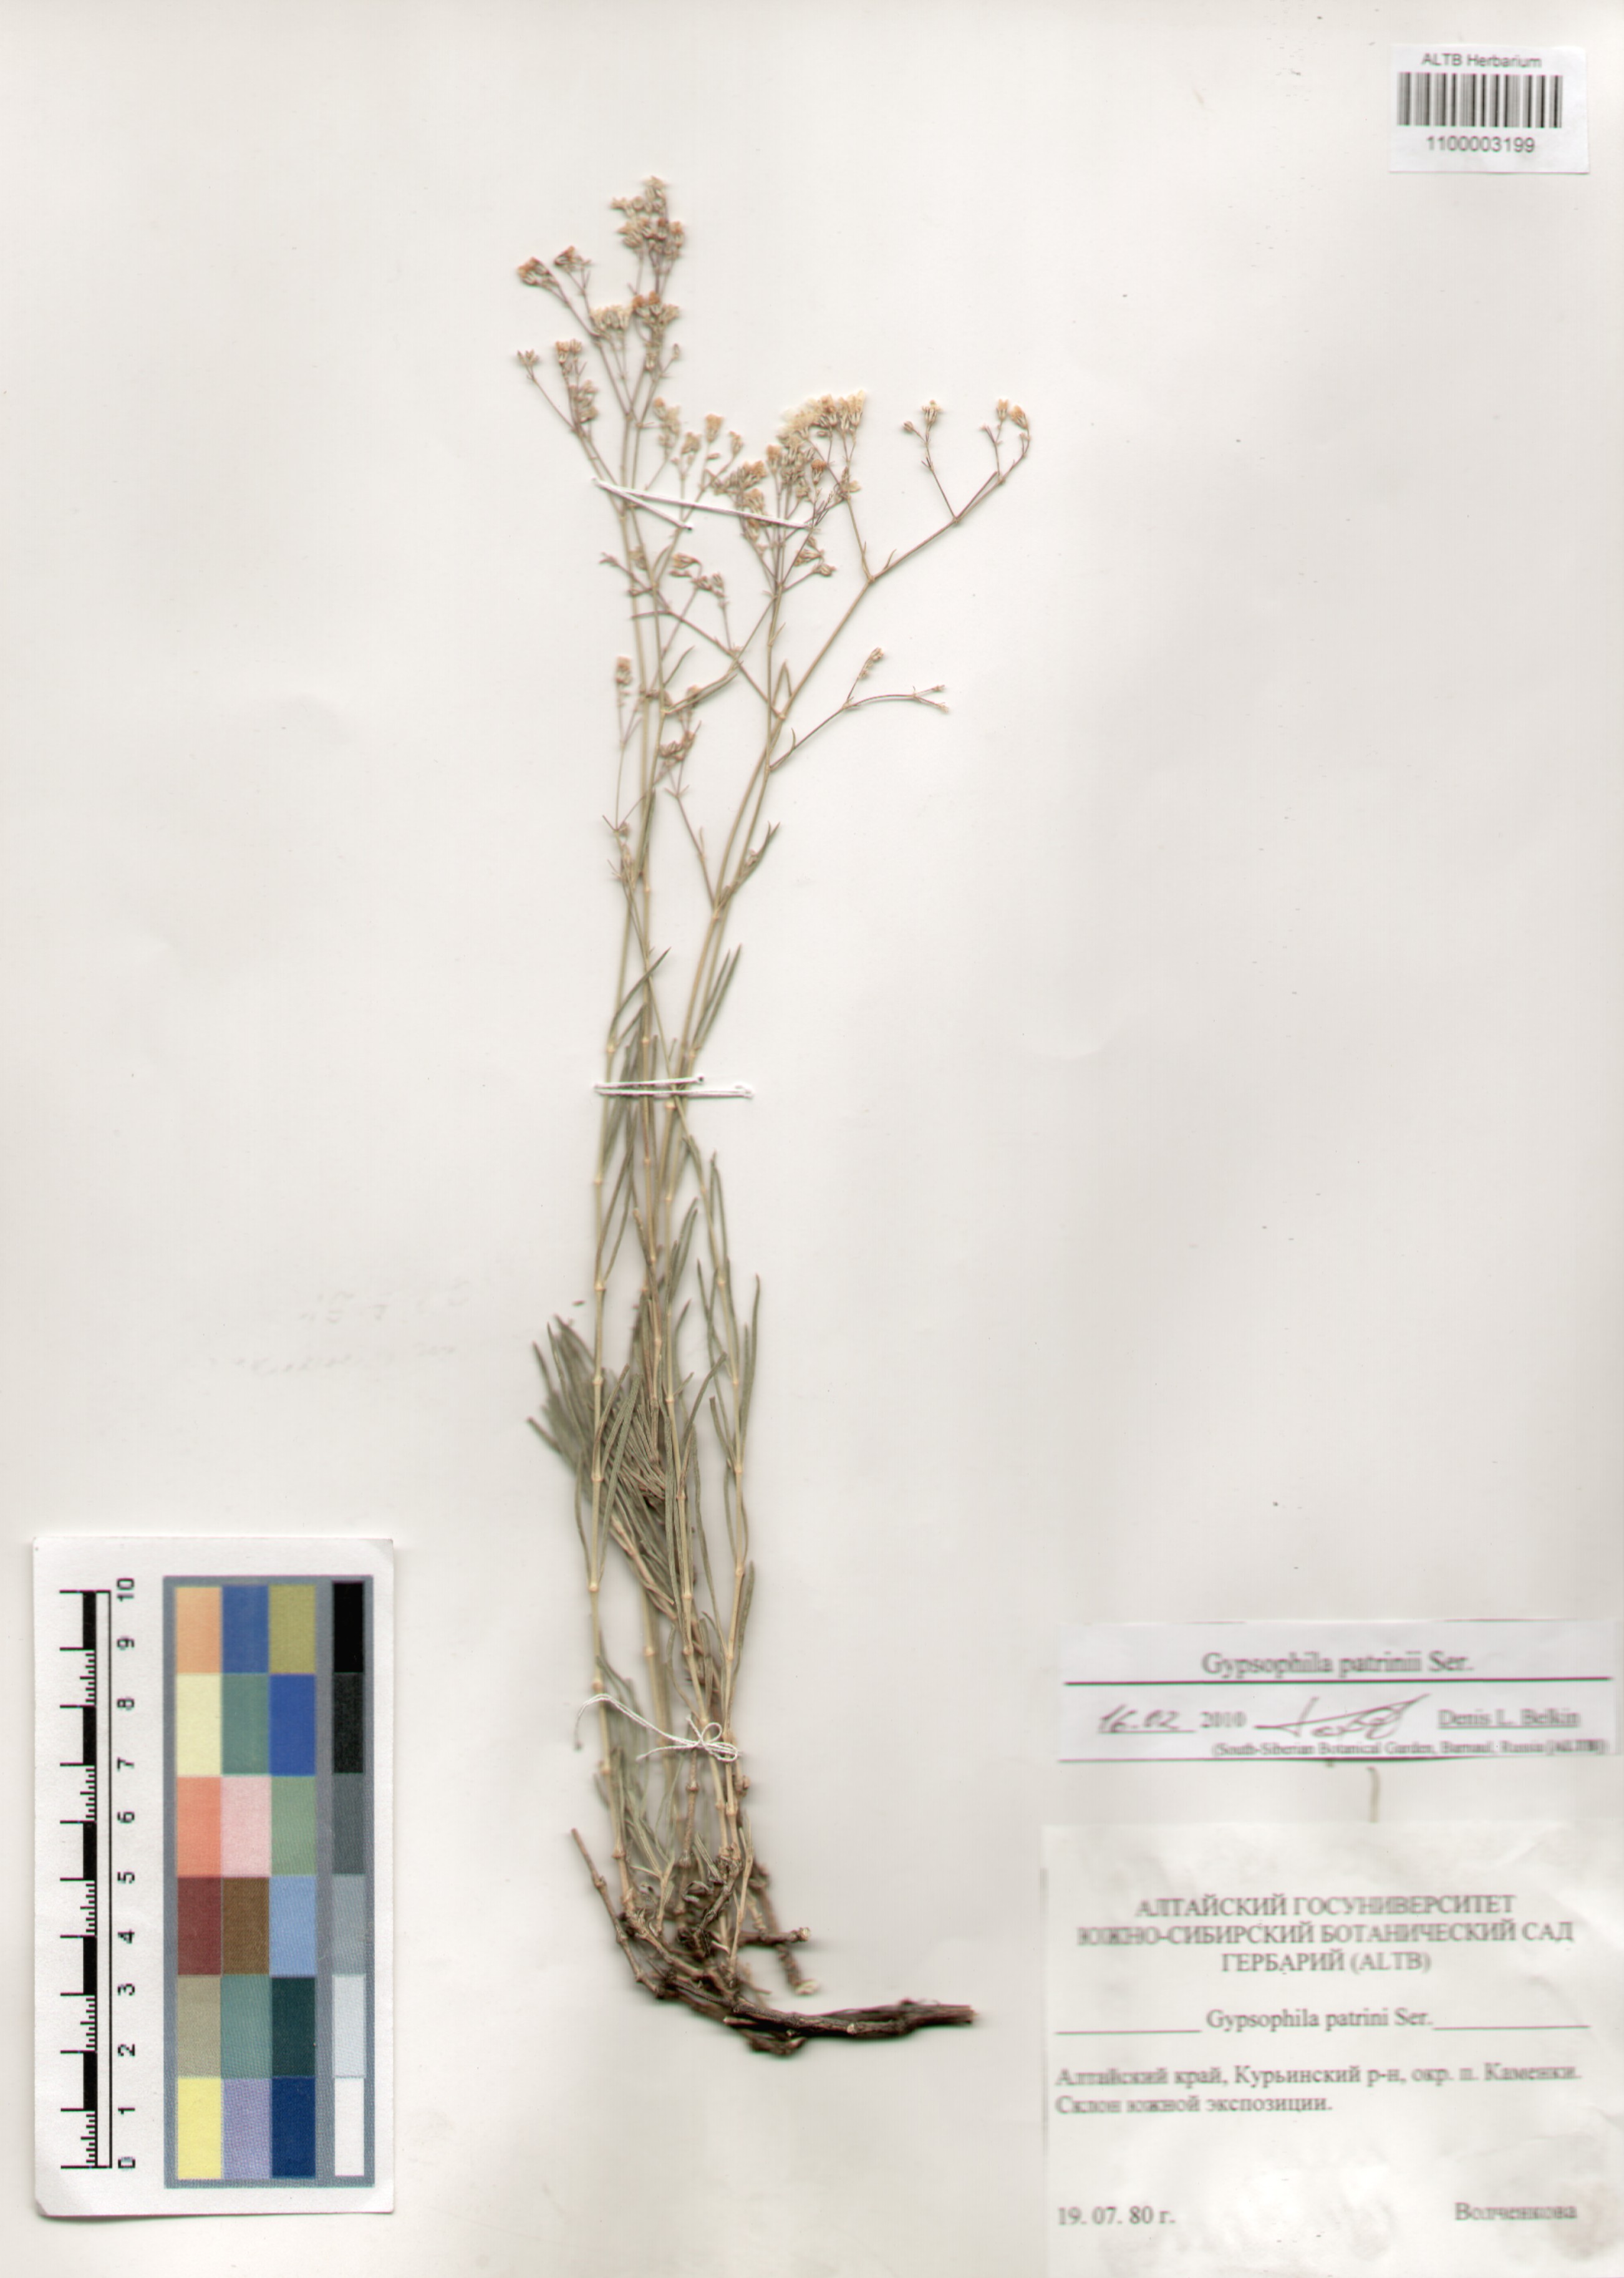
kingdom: Plantae
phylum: Tracheophyta
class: Magnoliopsida
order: Caryophyllales
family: Caryophyllaceae
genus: Gypsophila
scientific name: Gypsophila patrinii
